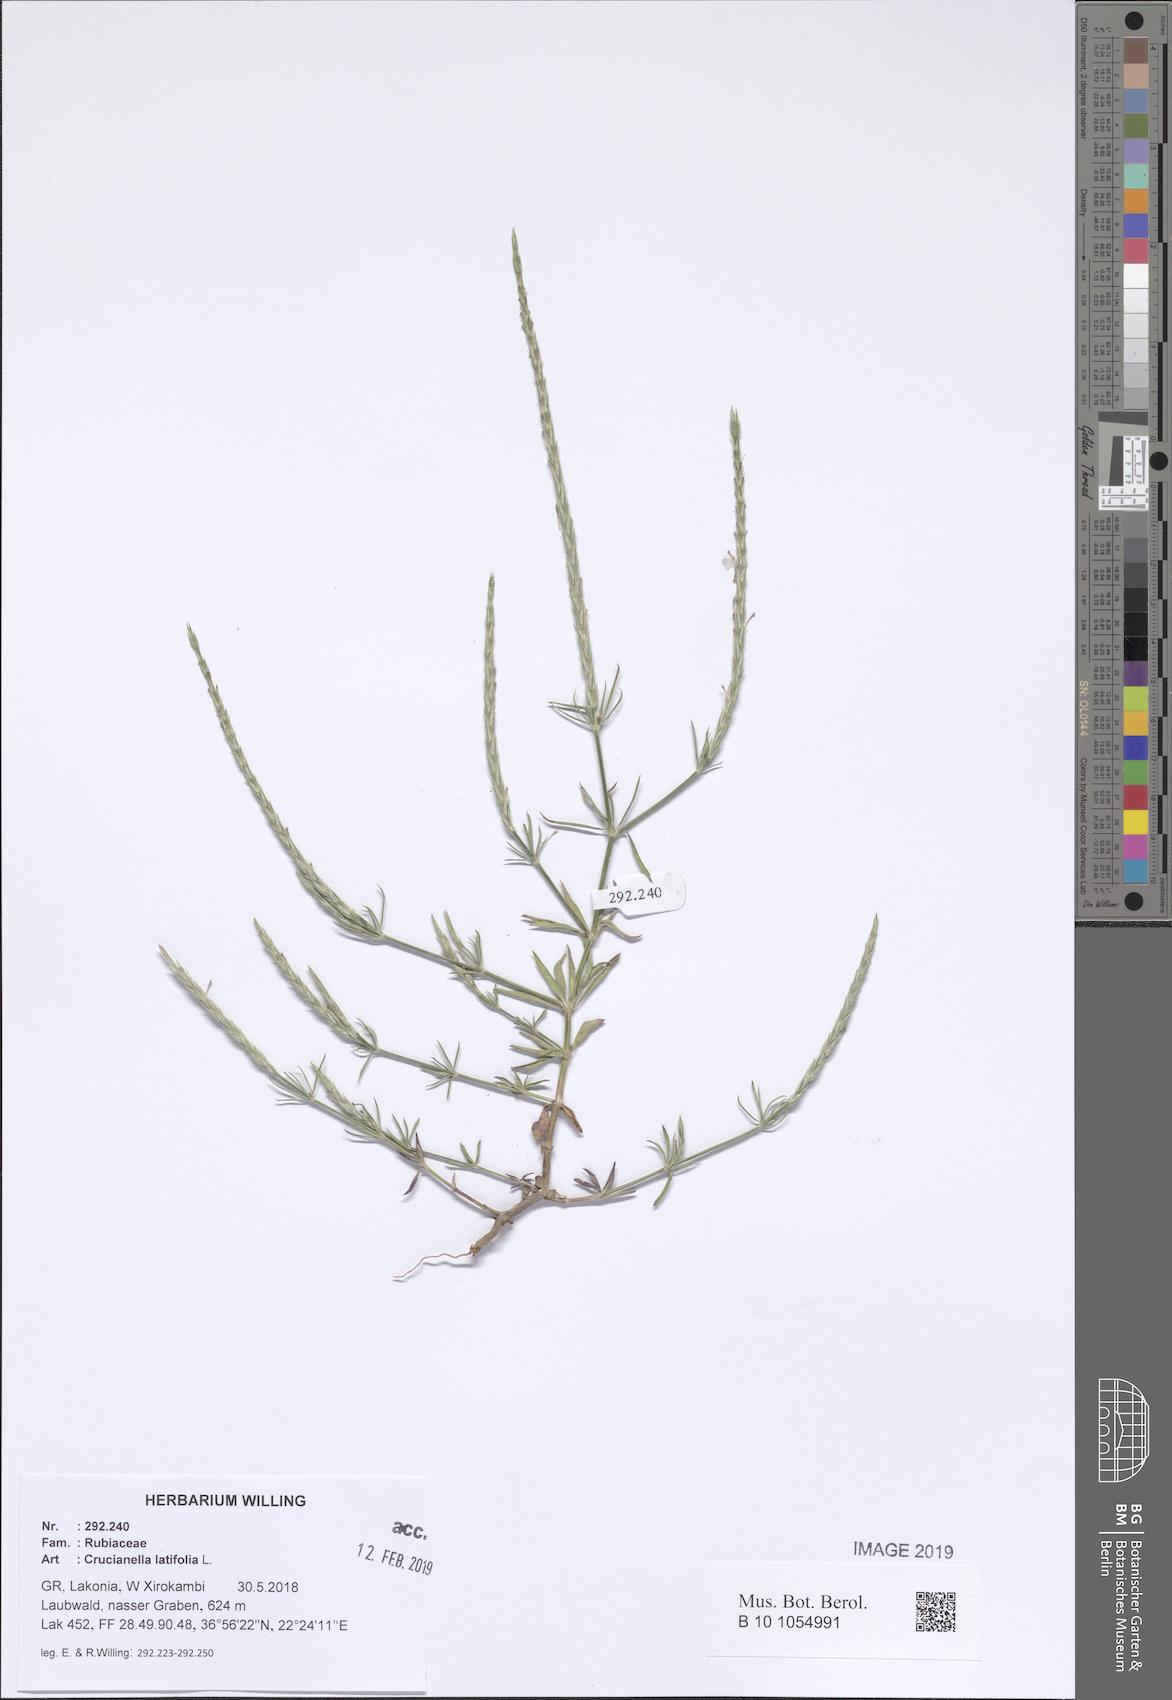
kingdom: Plantae
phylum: Tracheophyta
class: Magnoliopsida
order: Gentianales
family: Rubiaceae
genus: Crucianella
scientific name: Crucianella latifolia
